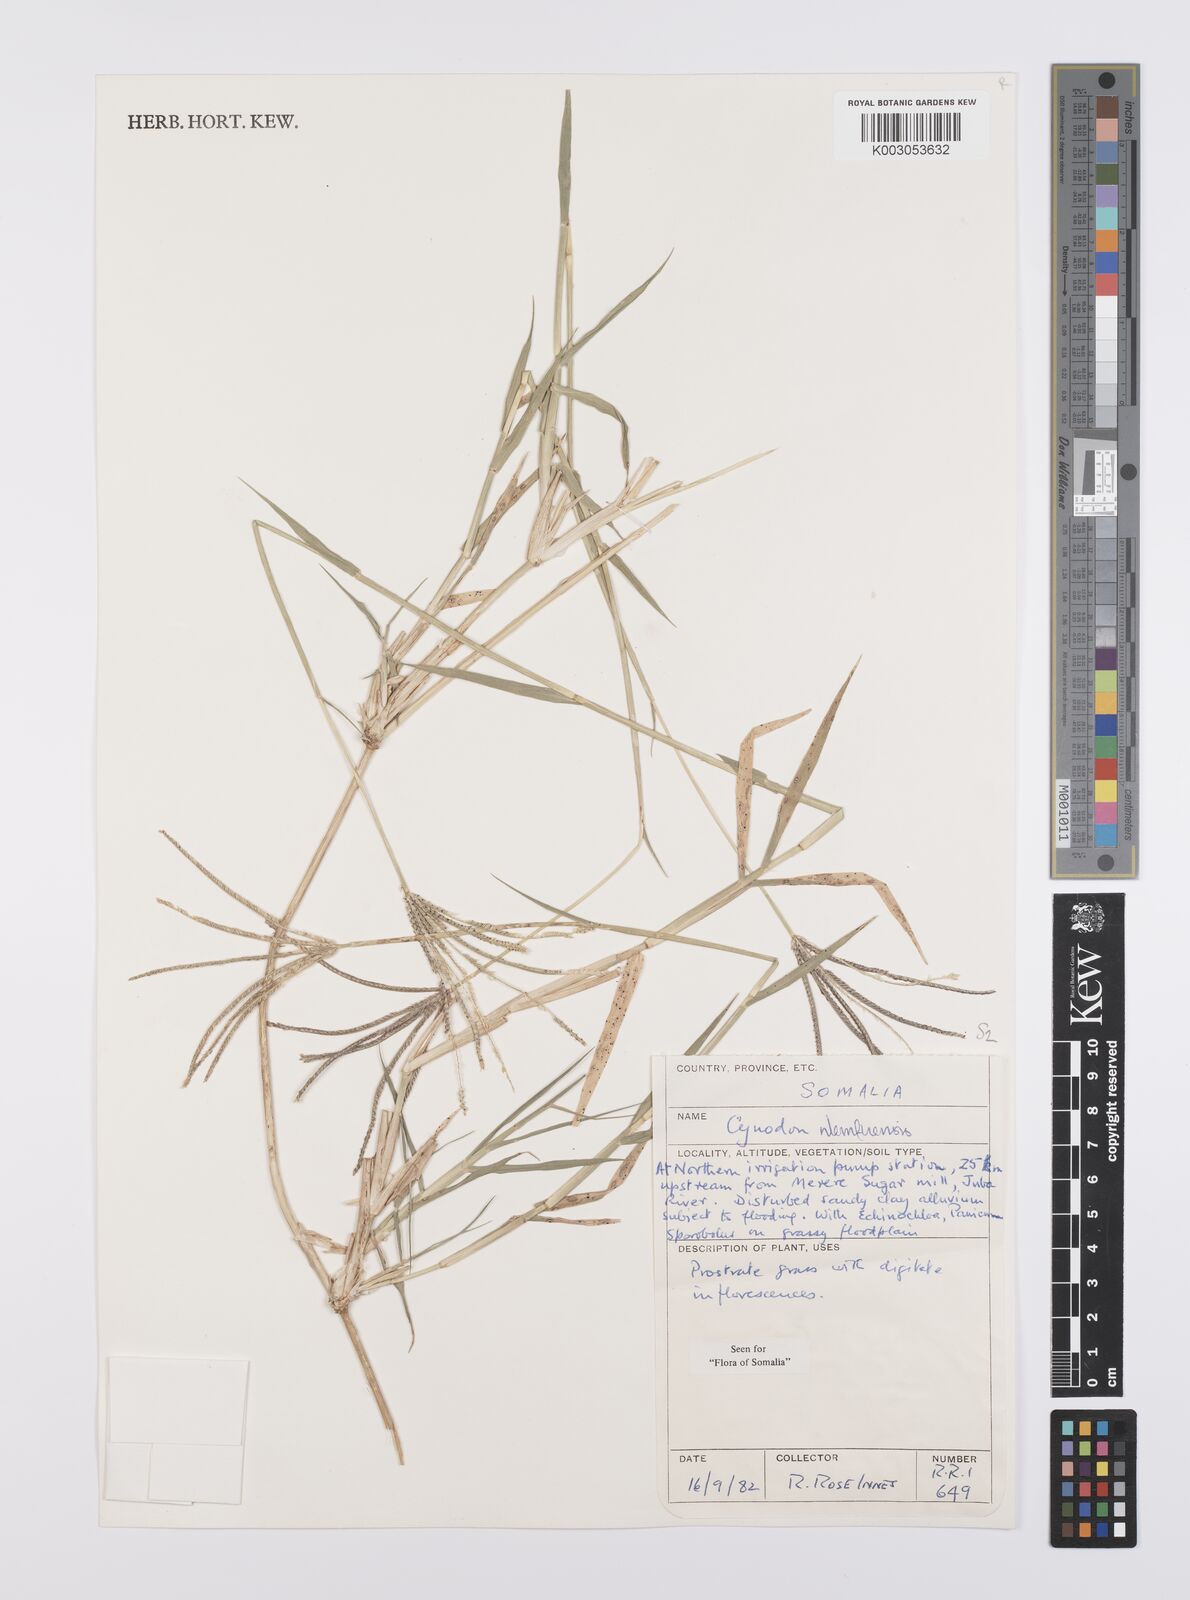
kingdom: Plantae
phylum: Tracheophyta
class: Liliopsida
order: Poales
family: Poaceae
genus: Cynodon
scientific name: Cynodon nlemfuensis
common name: African bermudagrass
